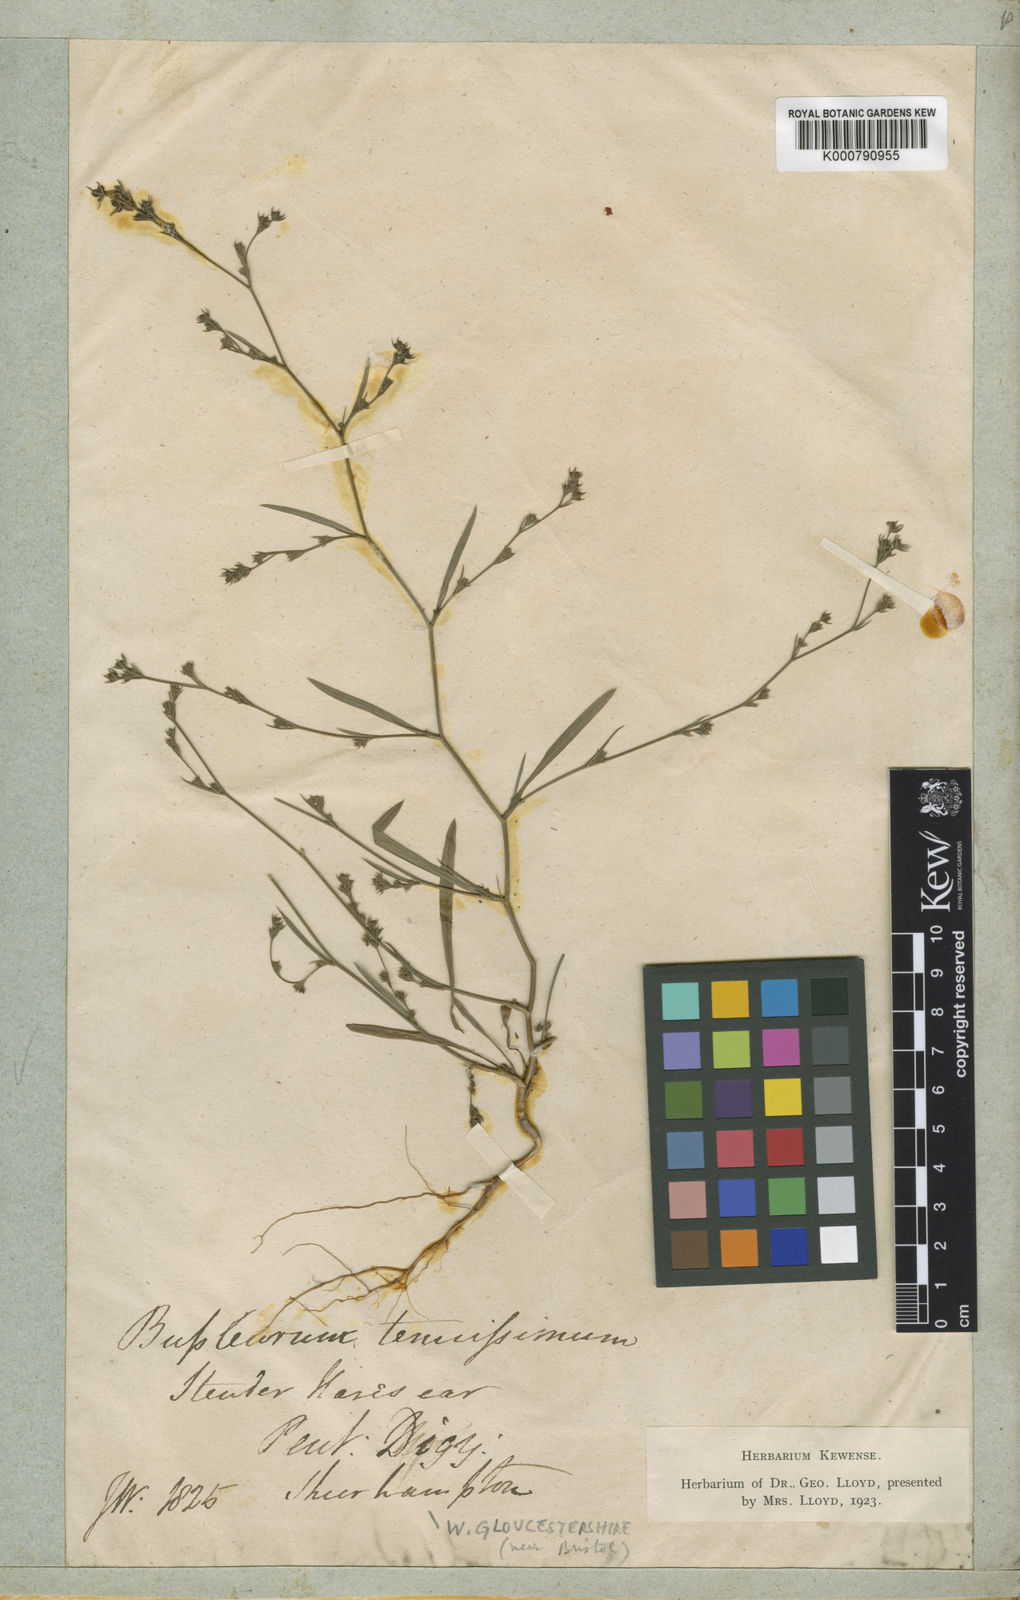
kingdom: Plantae
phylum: Tracheophyta
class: Magnoliopsida
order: Apiales
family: Apiaceae
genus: Bupleurum
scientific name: Bupleurum tenuissimum
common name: Slender hare's-ear
